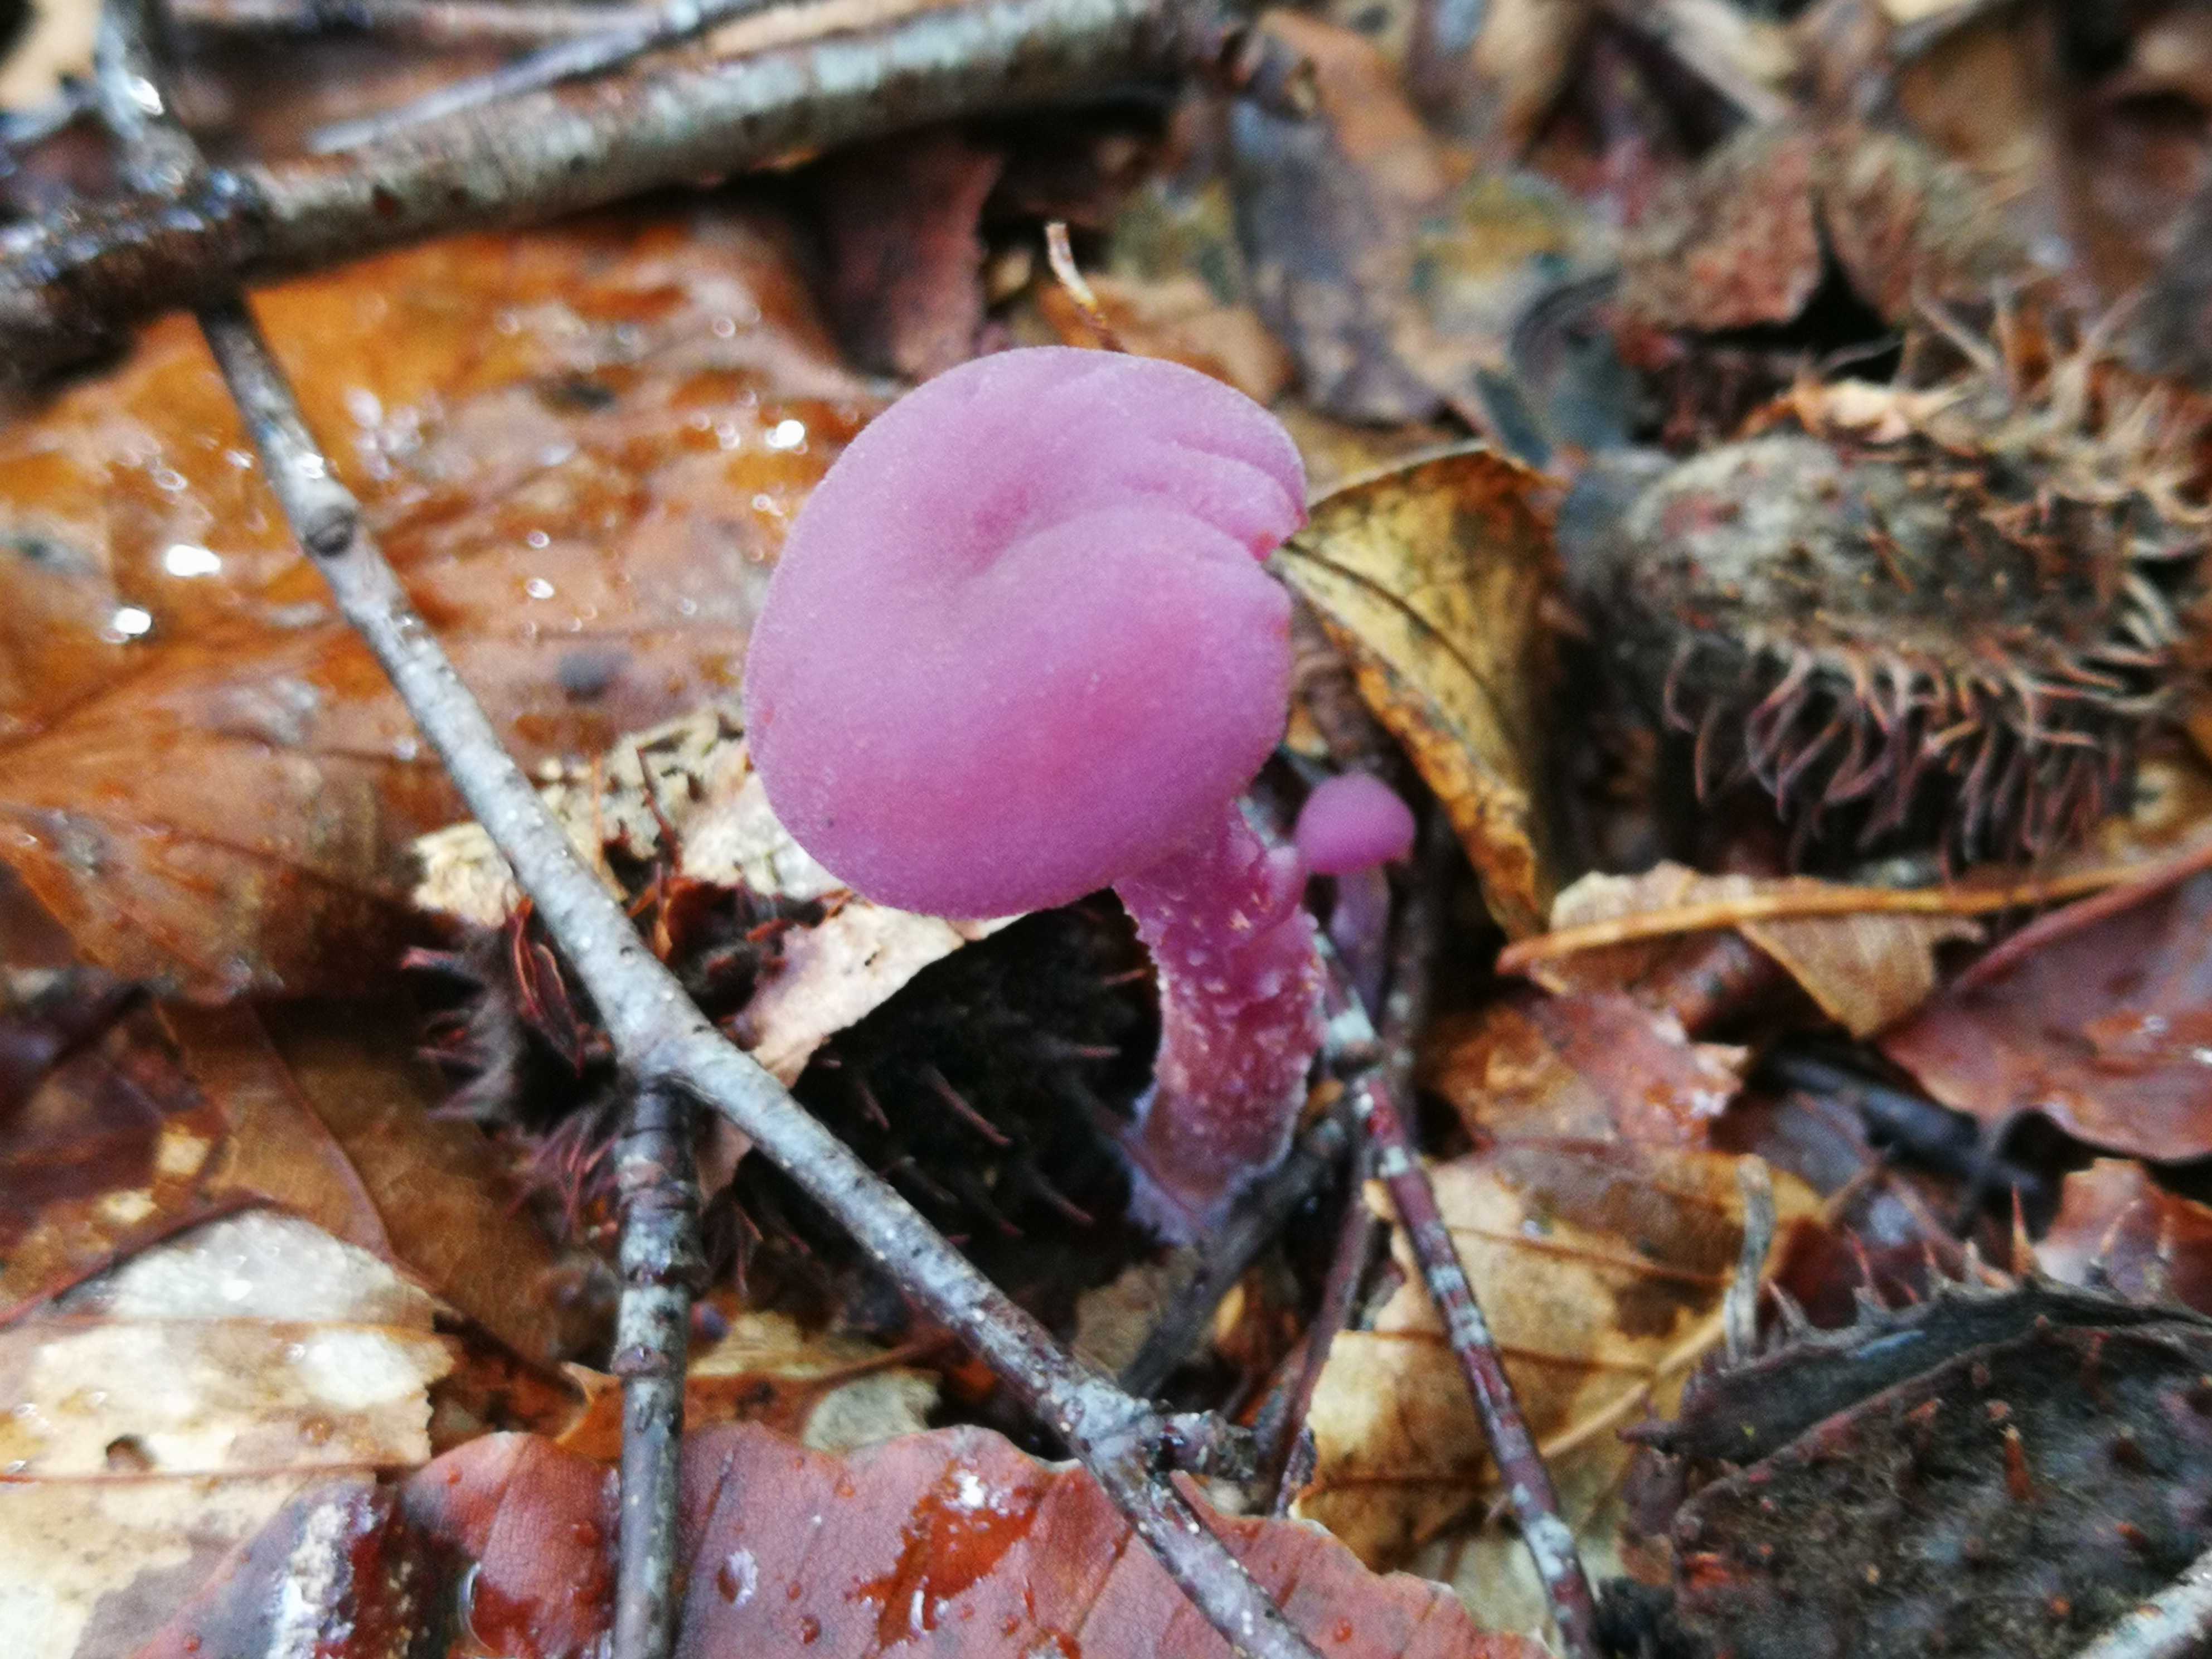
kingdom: Fungi
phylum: Basidiomycota
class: Agaricomycetes
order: Agaricales
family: Hydnangiaceae
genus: Laccaria
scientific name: Laccaria amethystina
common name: violet ametysthat
